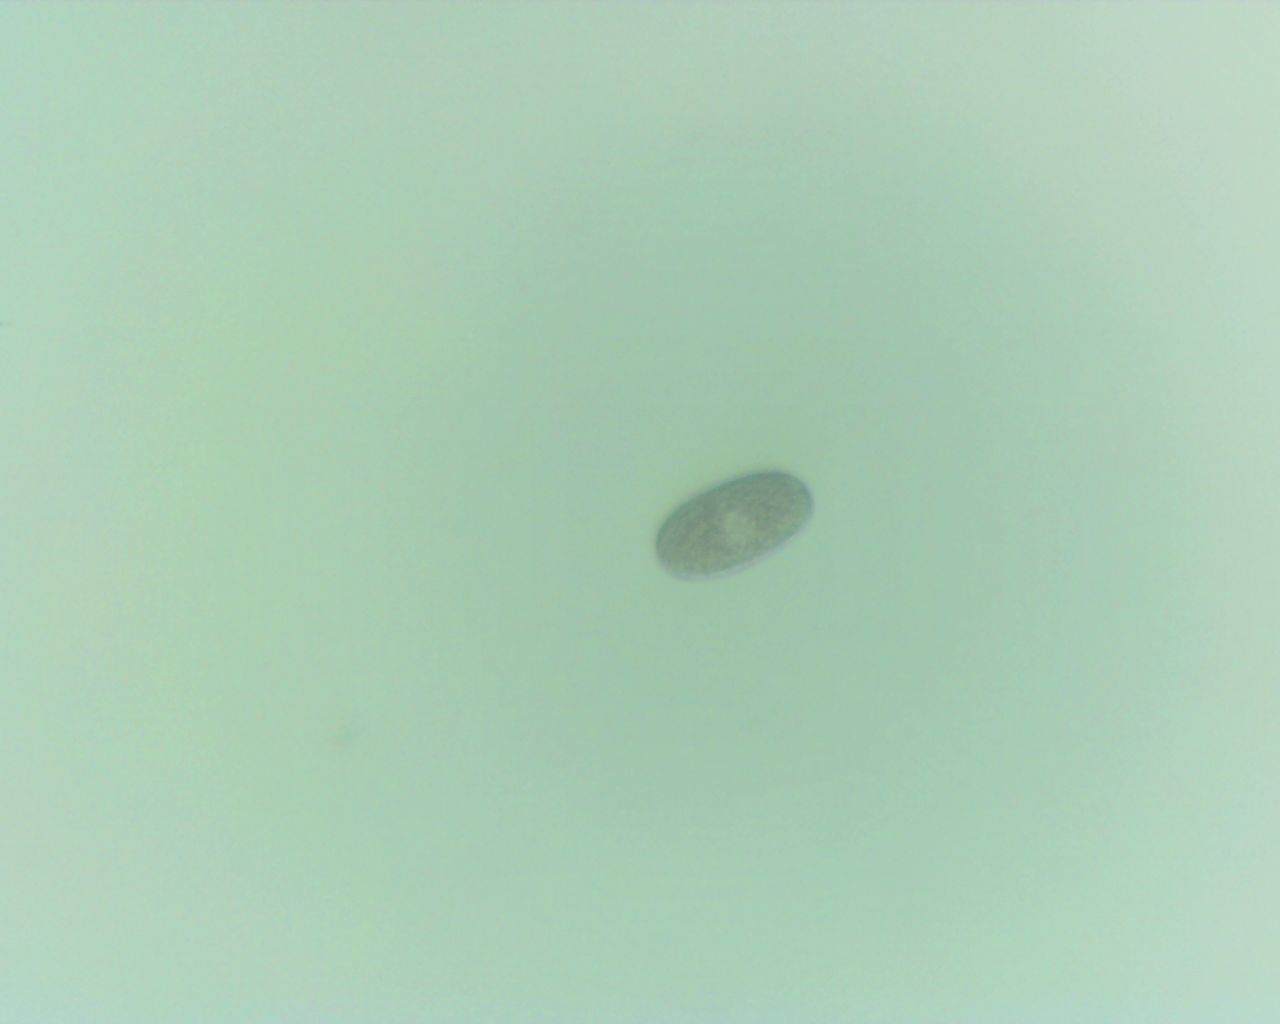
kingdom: Fungi
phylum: Ascomycota
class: Leotiomycetes
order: Helotiales
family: Erysiphaceae
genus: Erysiphe
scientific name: Erysiphe viburni
